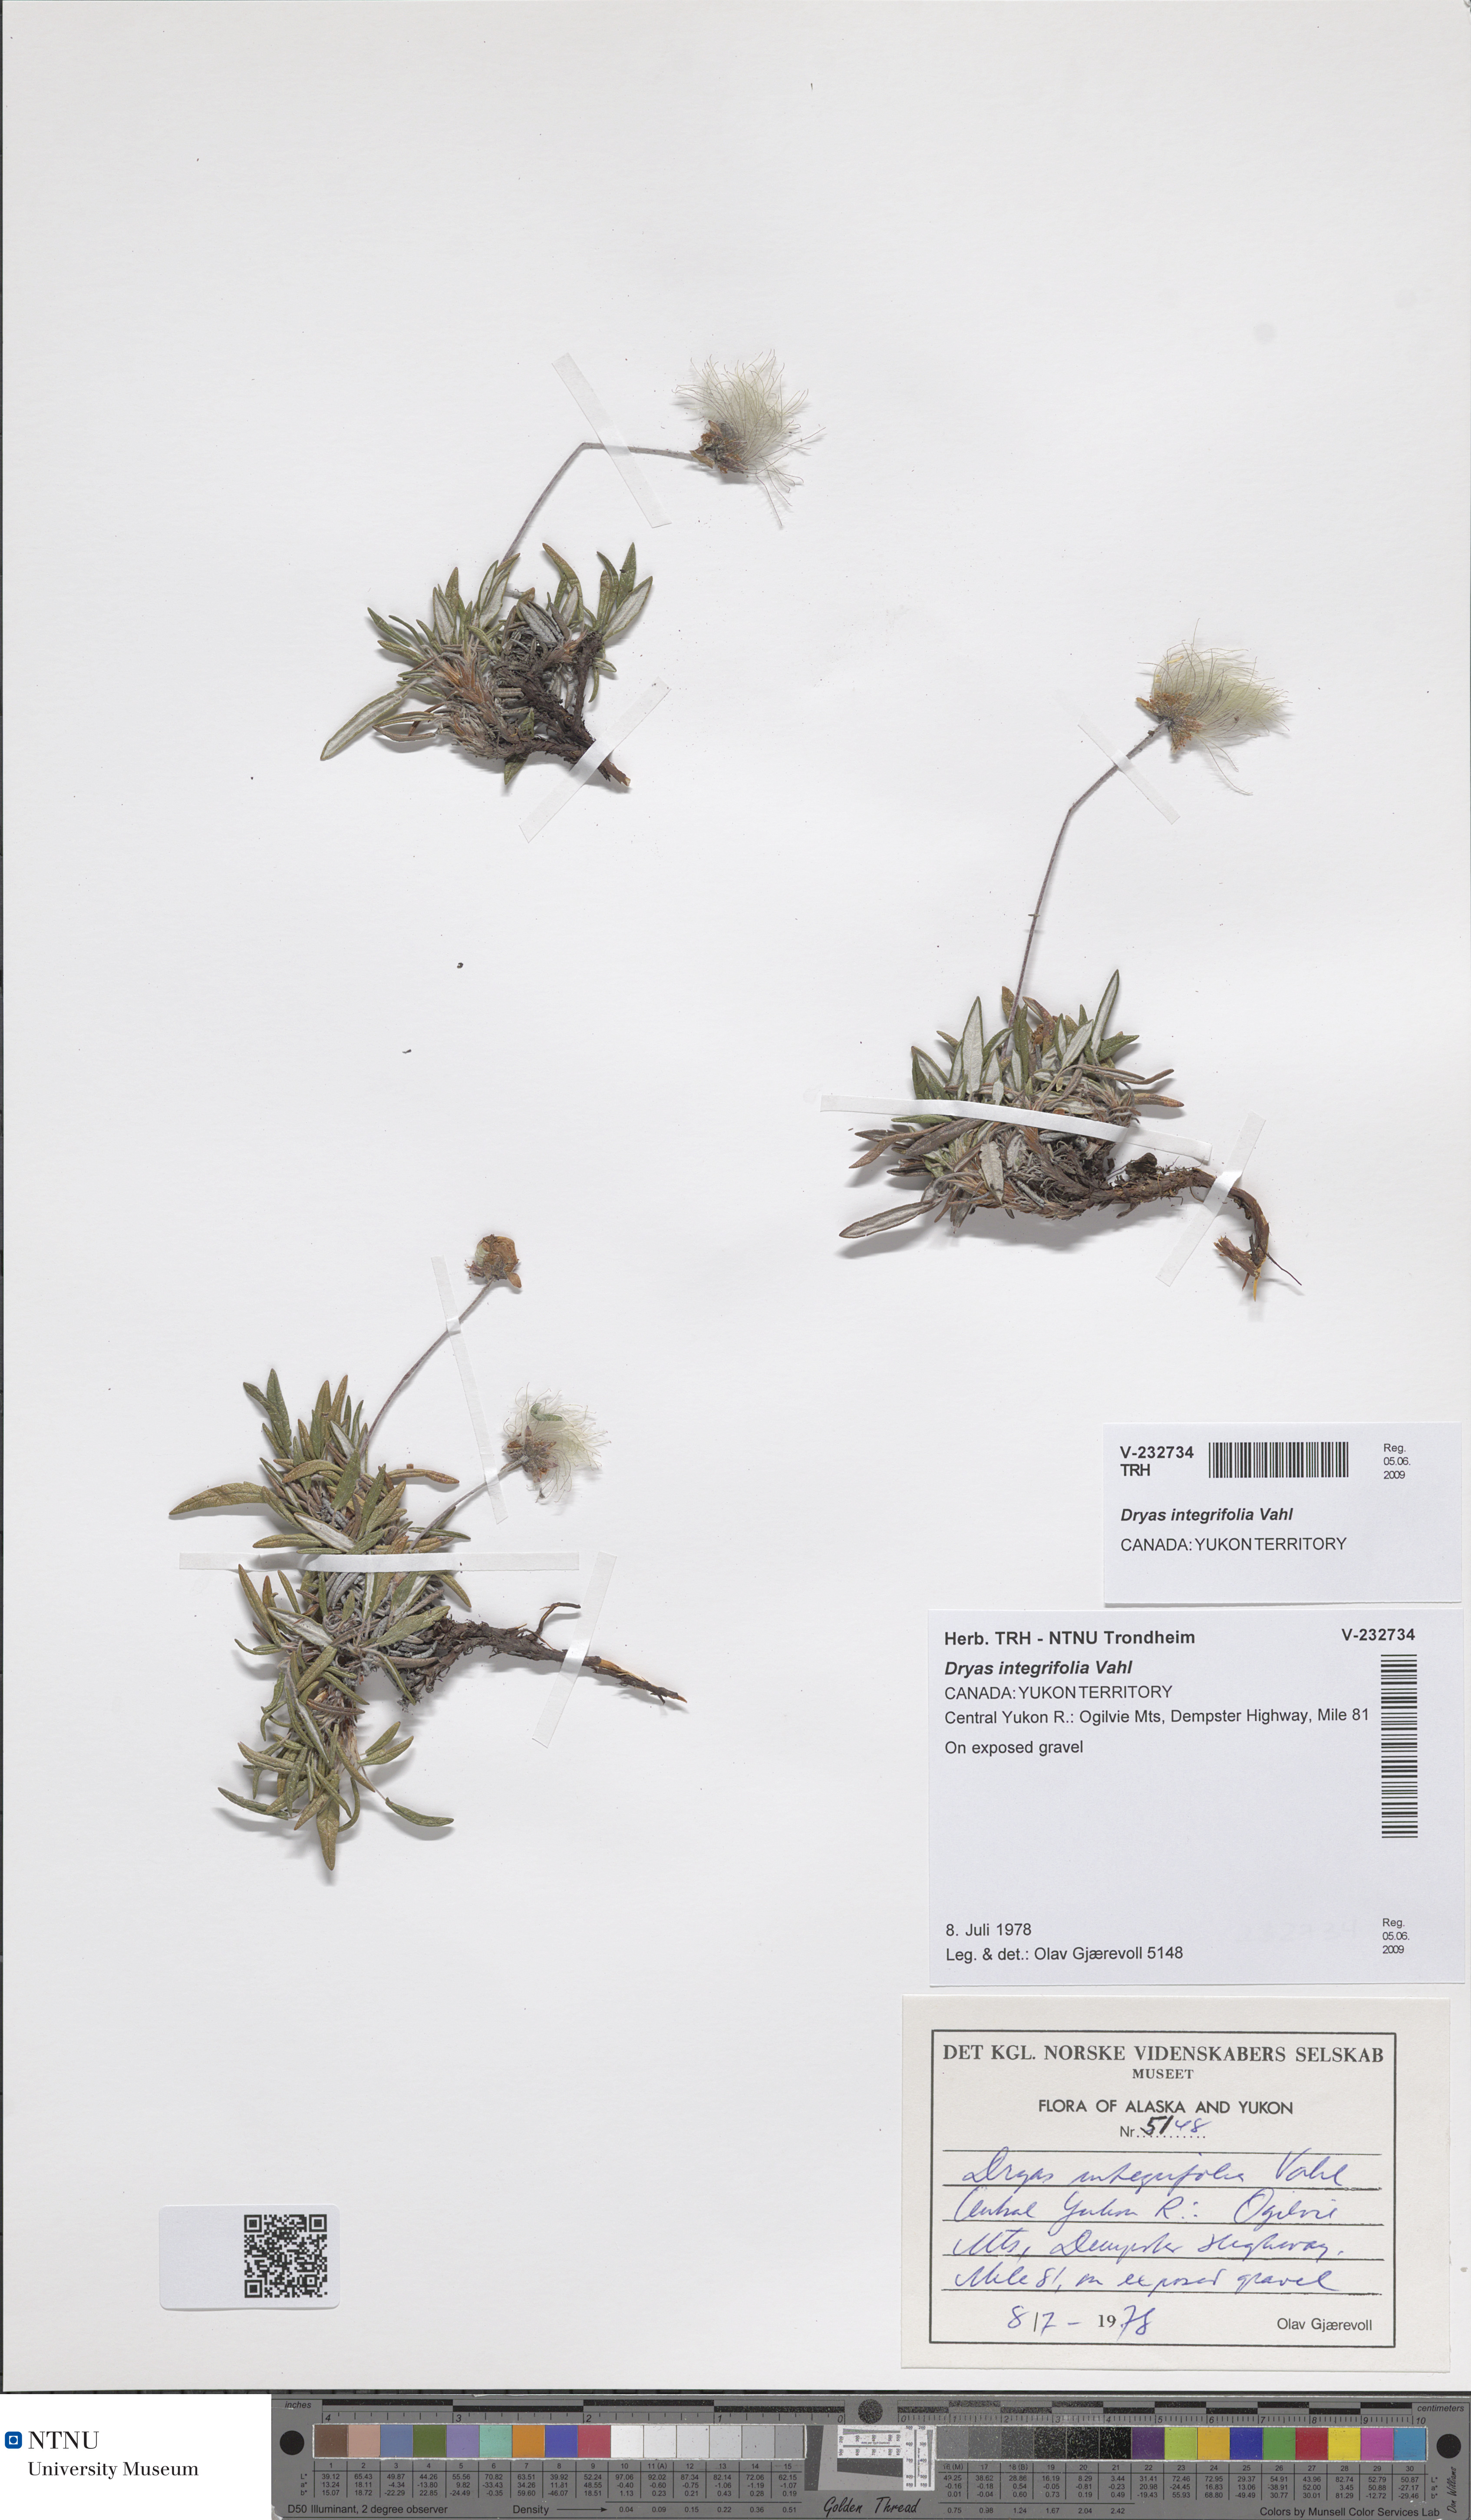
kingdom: Plantae
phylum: Tracheophyta
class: Magnoliopsida
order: Rosales
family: Rosaceae
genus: Dryas
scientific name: Dryas integrifolia
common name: Entire-leaved mountain avens
